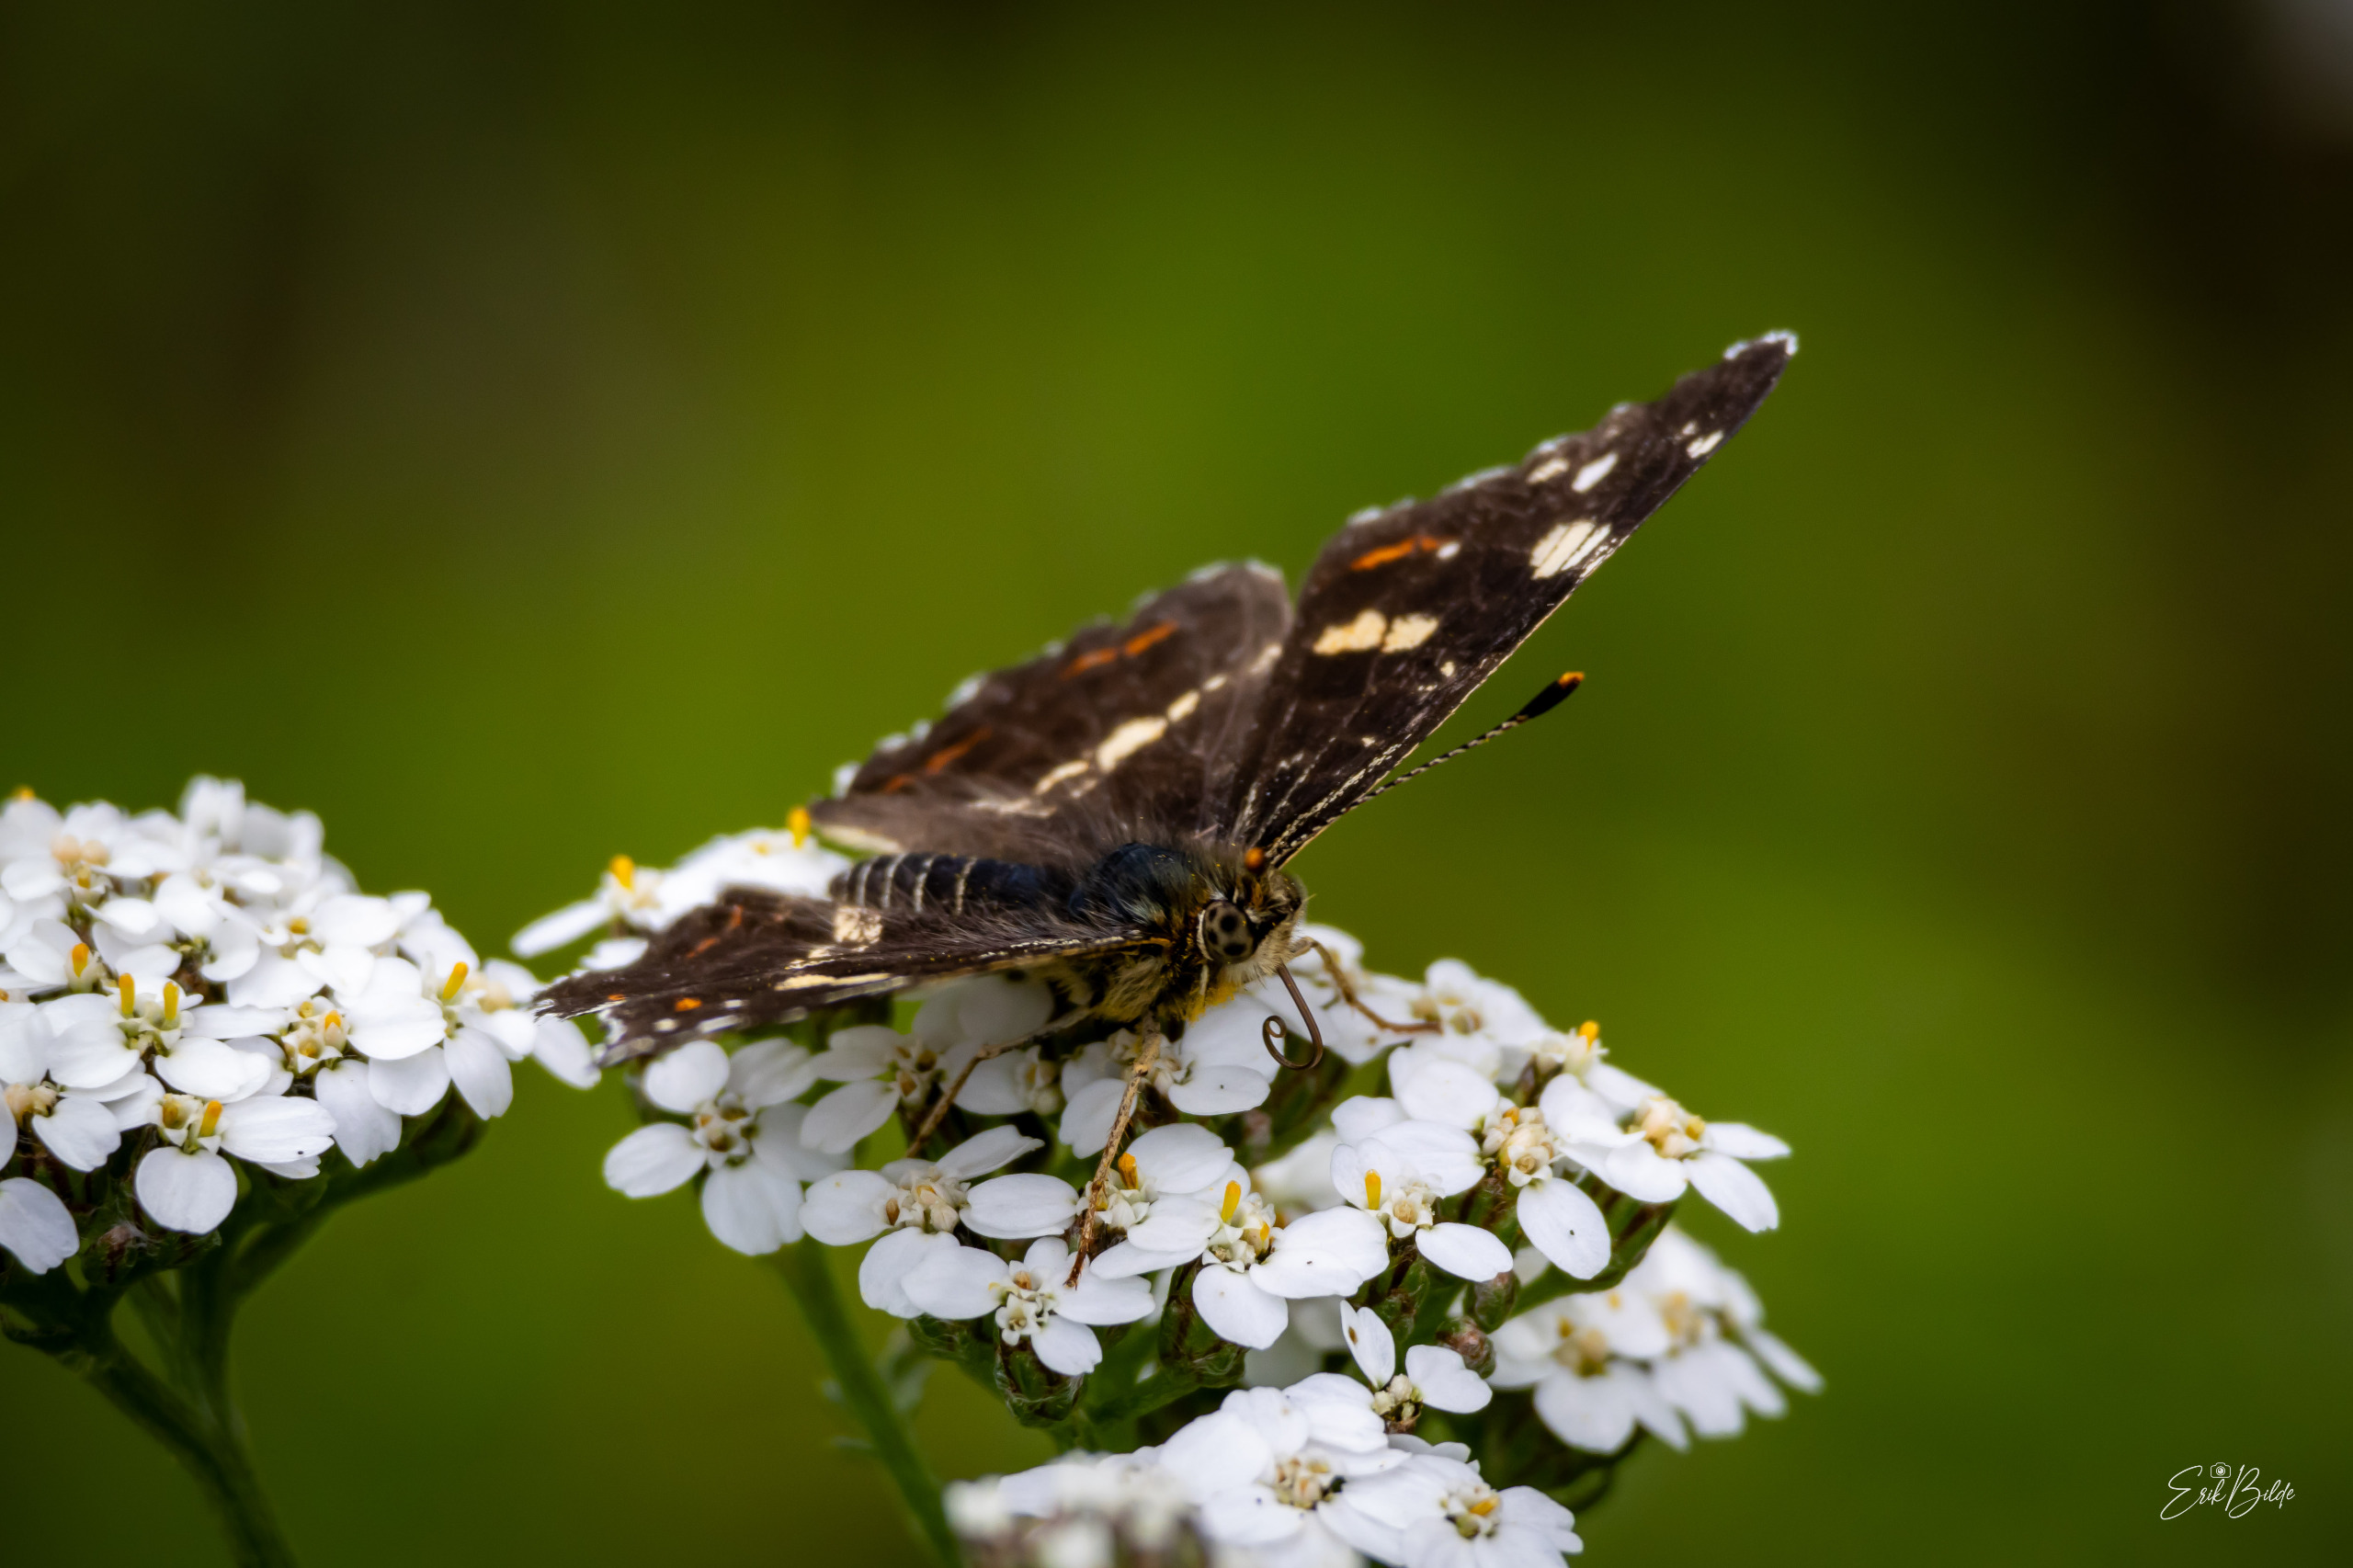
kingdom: Animalia
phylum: Arthropoda
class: Insecta
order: Lepidoptera
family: Nymphalidae
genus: Araschnia
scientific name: Araschnia levana
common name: Nældesommerfugl
